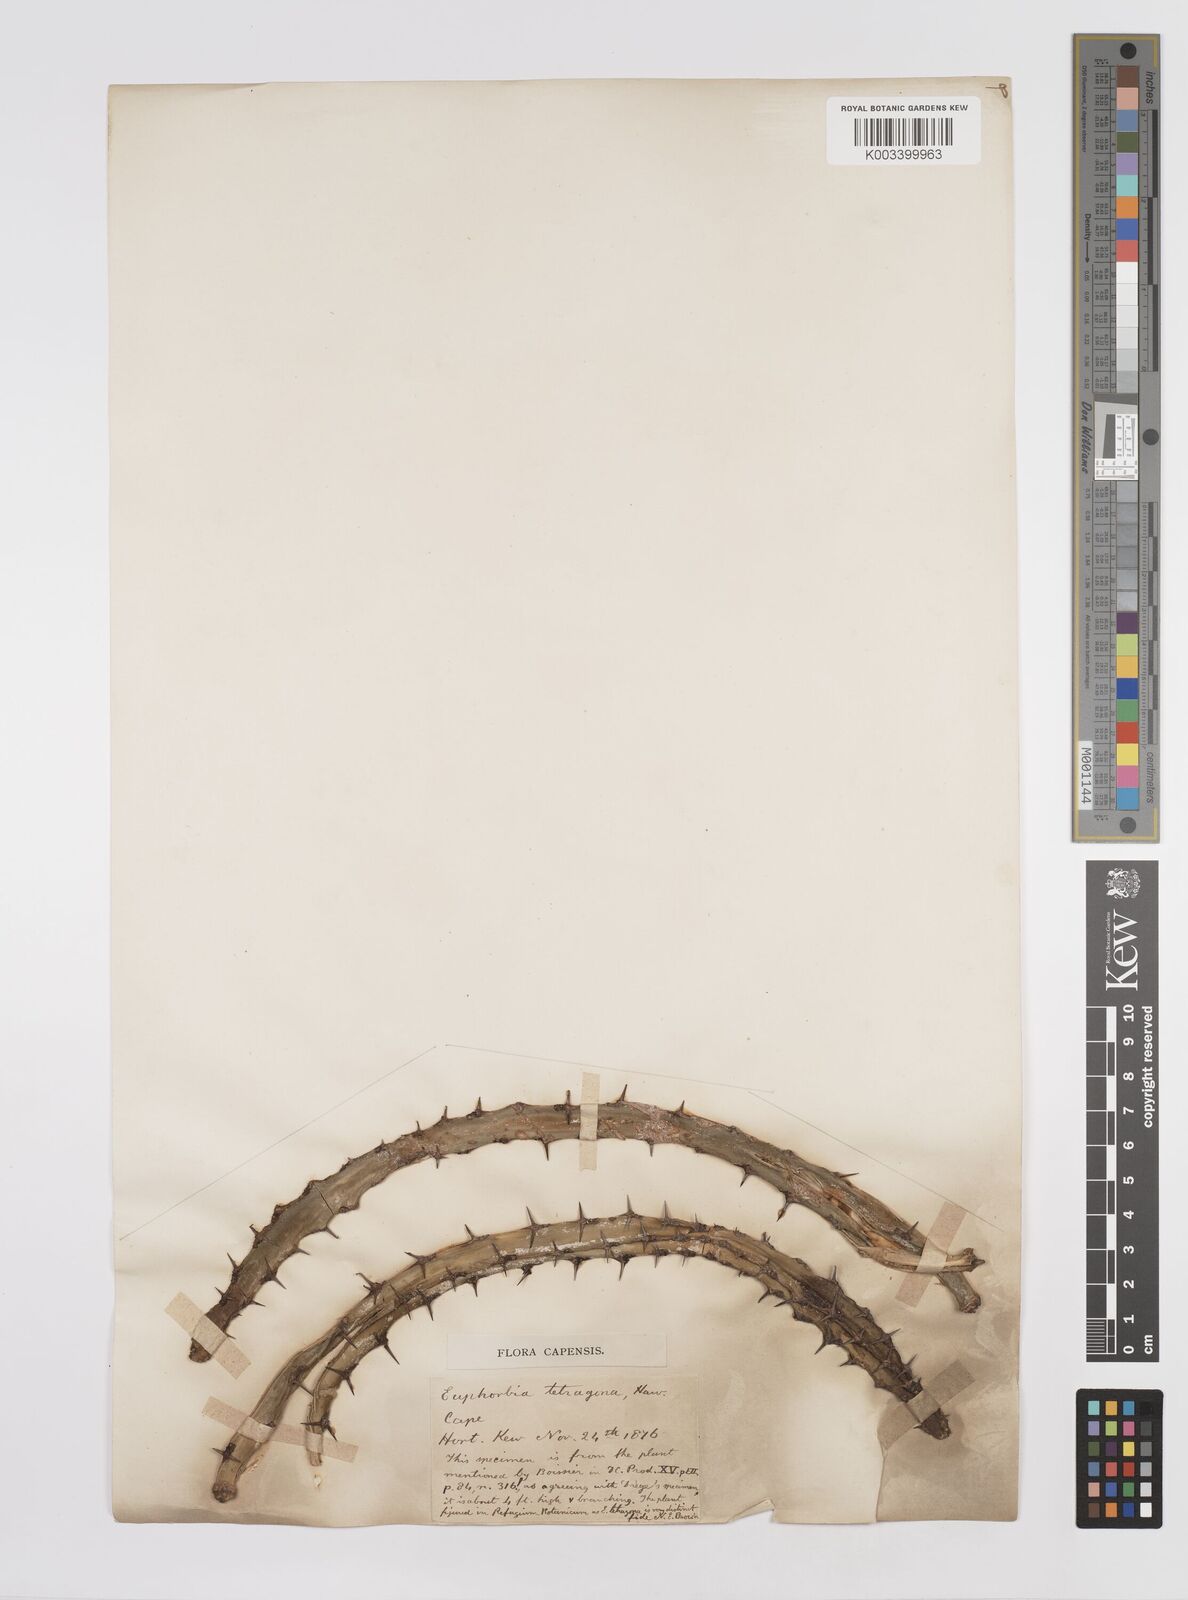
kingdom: Plantae
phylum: Tracheophyta
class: Magnoliopsida
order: Malpighiales
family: Euphorbiaceae
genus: Euphorbia
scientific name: Euphorbia tetragona
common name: Honey euphorbia
